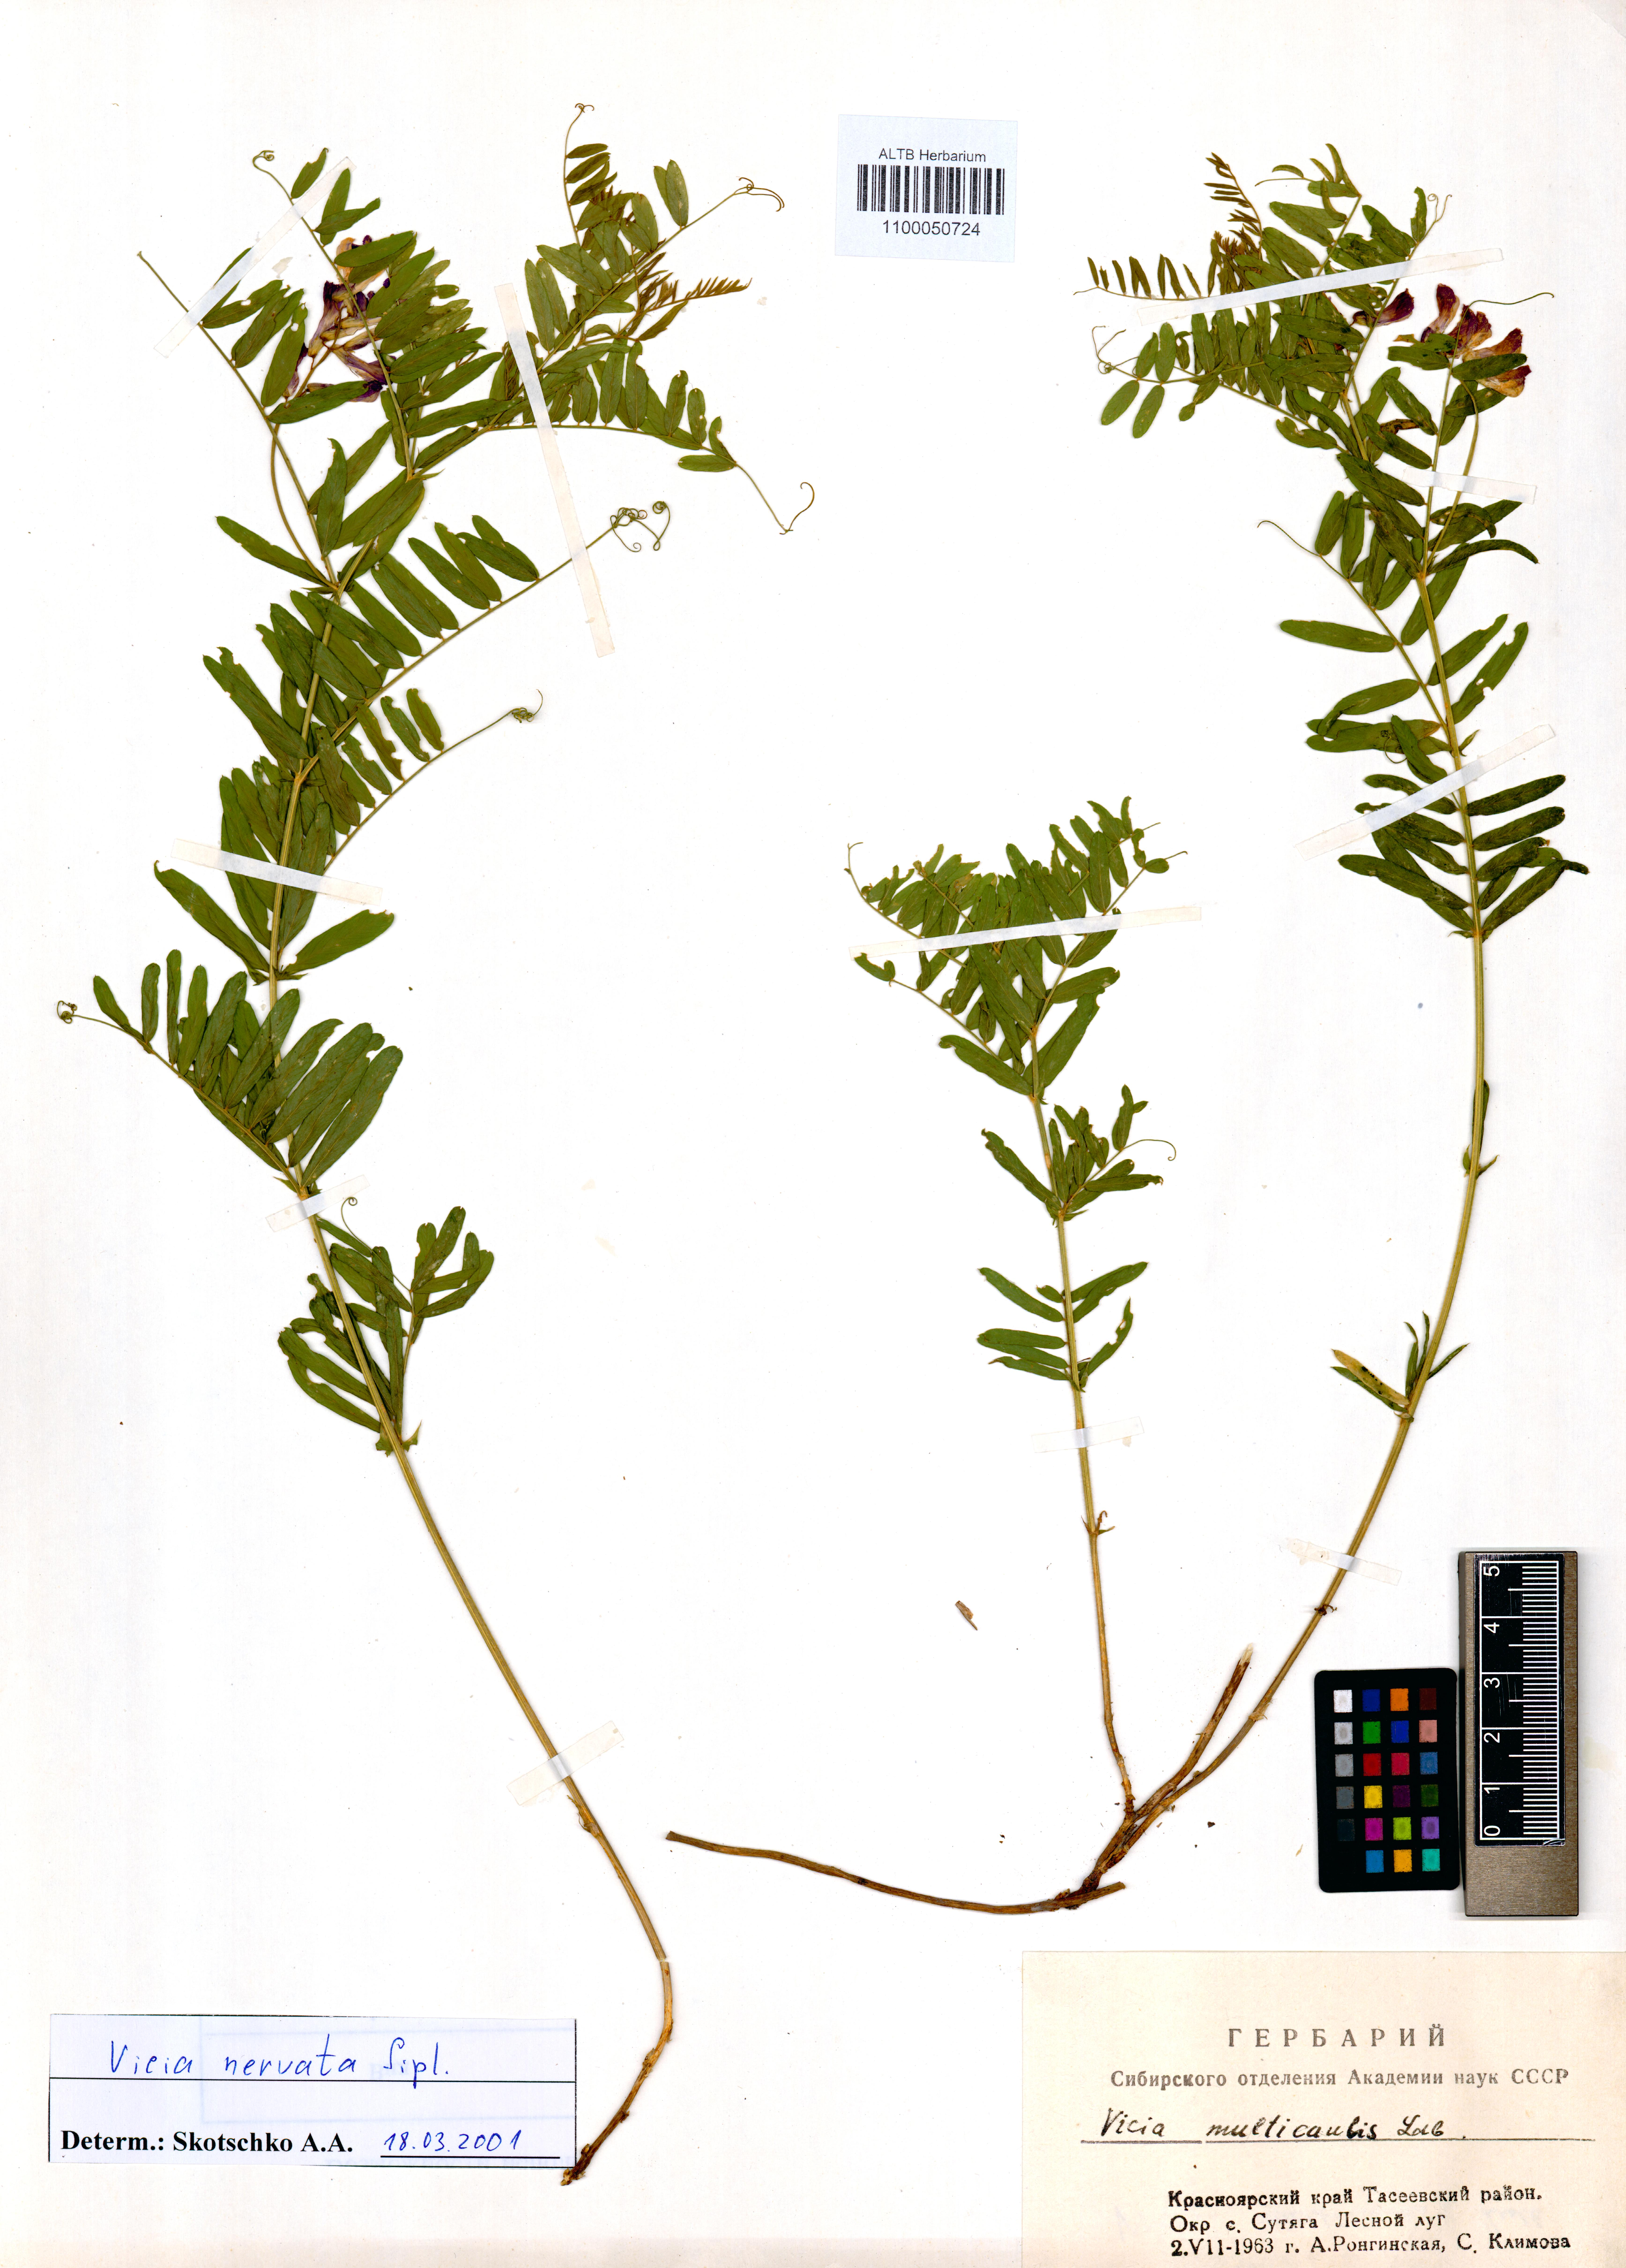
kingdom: Plantae
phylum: Tracheophyta
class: Magnoliopsida
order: Fabales
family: Fabaceae
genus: Vicia
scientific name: Vicia multicaulis
